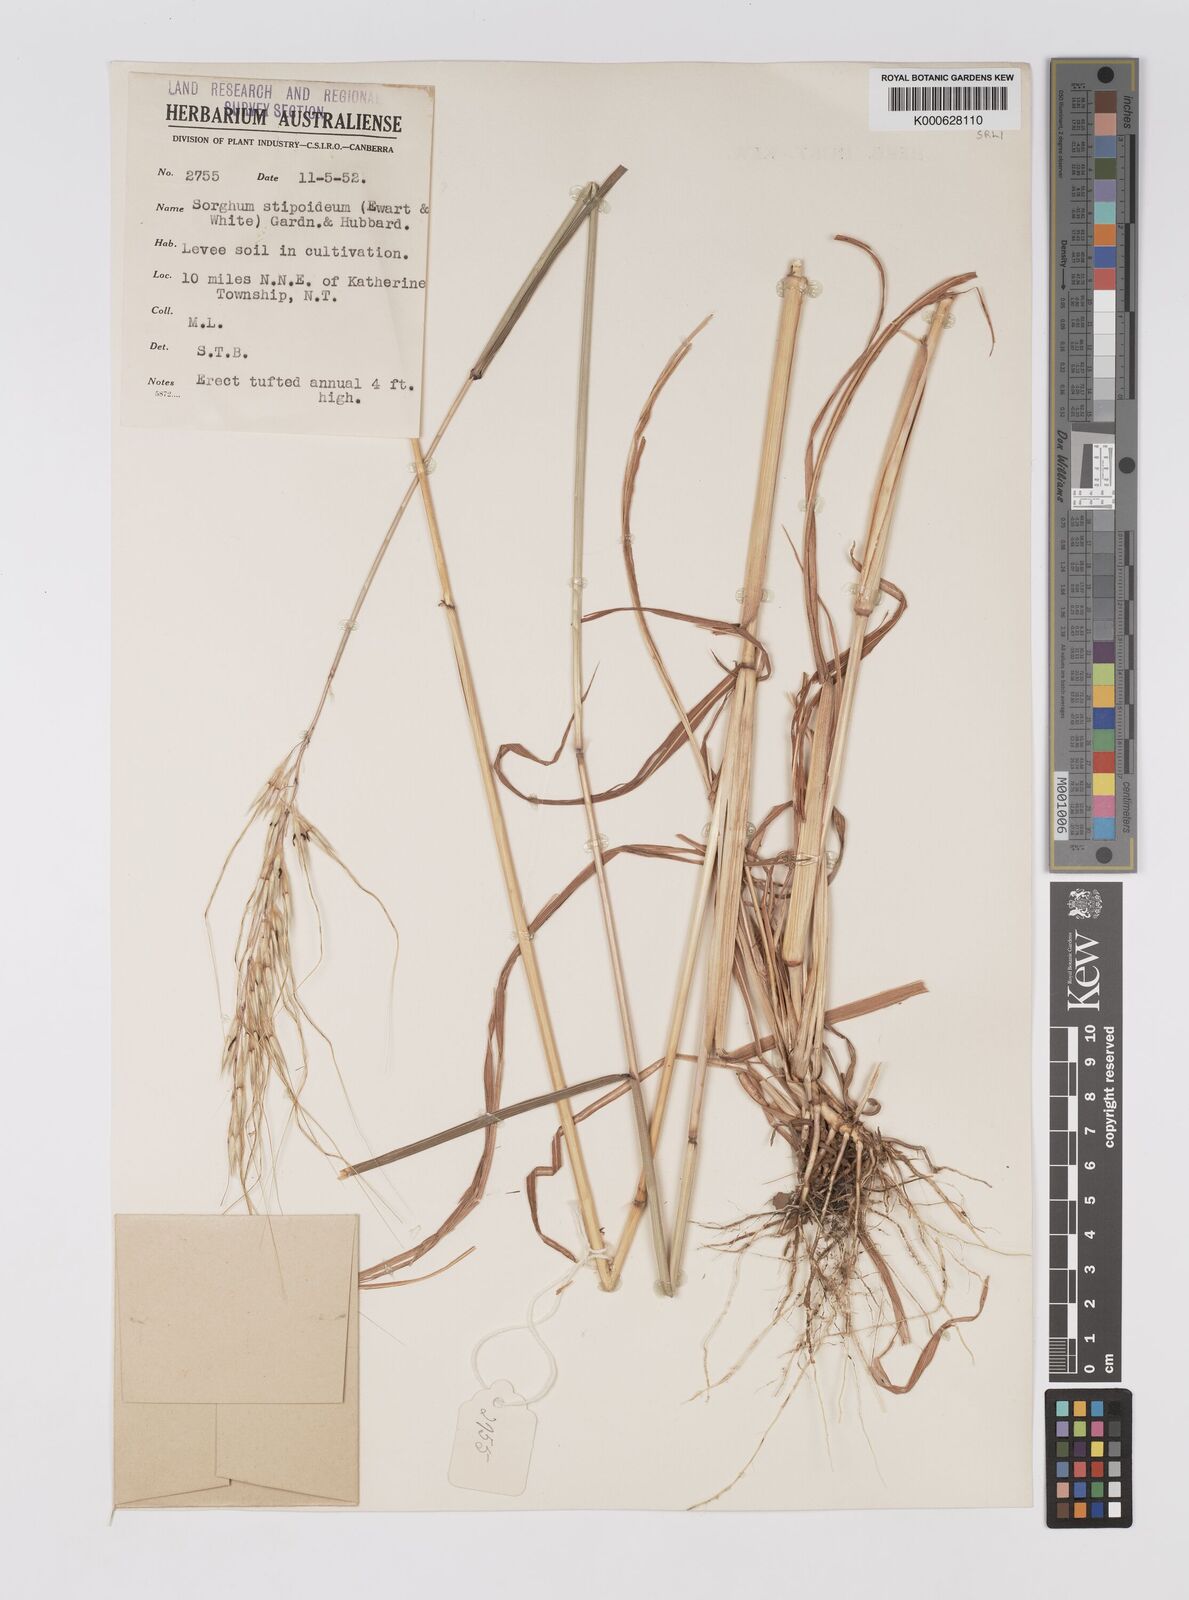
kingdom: Plantae
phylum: Tracheophyta
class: Liliopsida
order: Poales
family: Poaceae
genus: Sarga
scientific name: Sarga stipoidea
